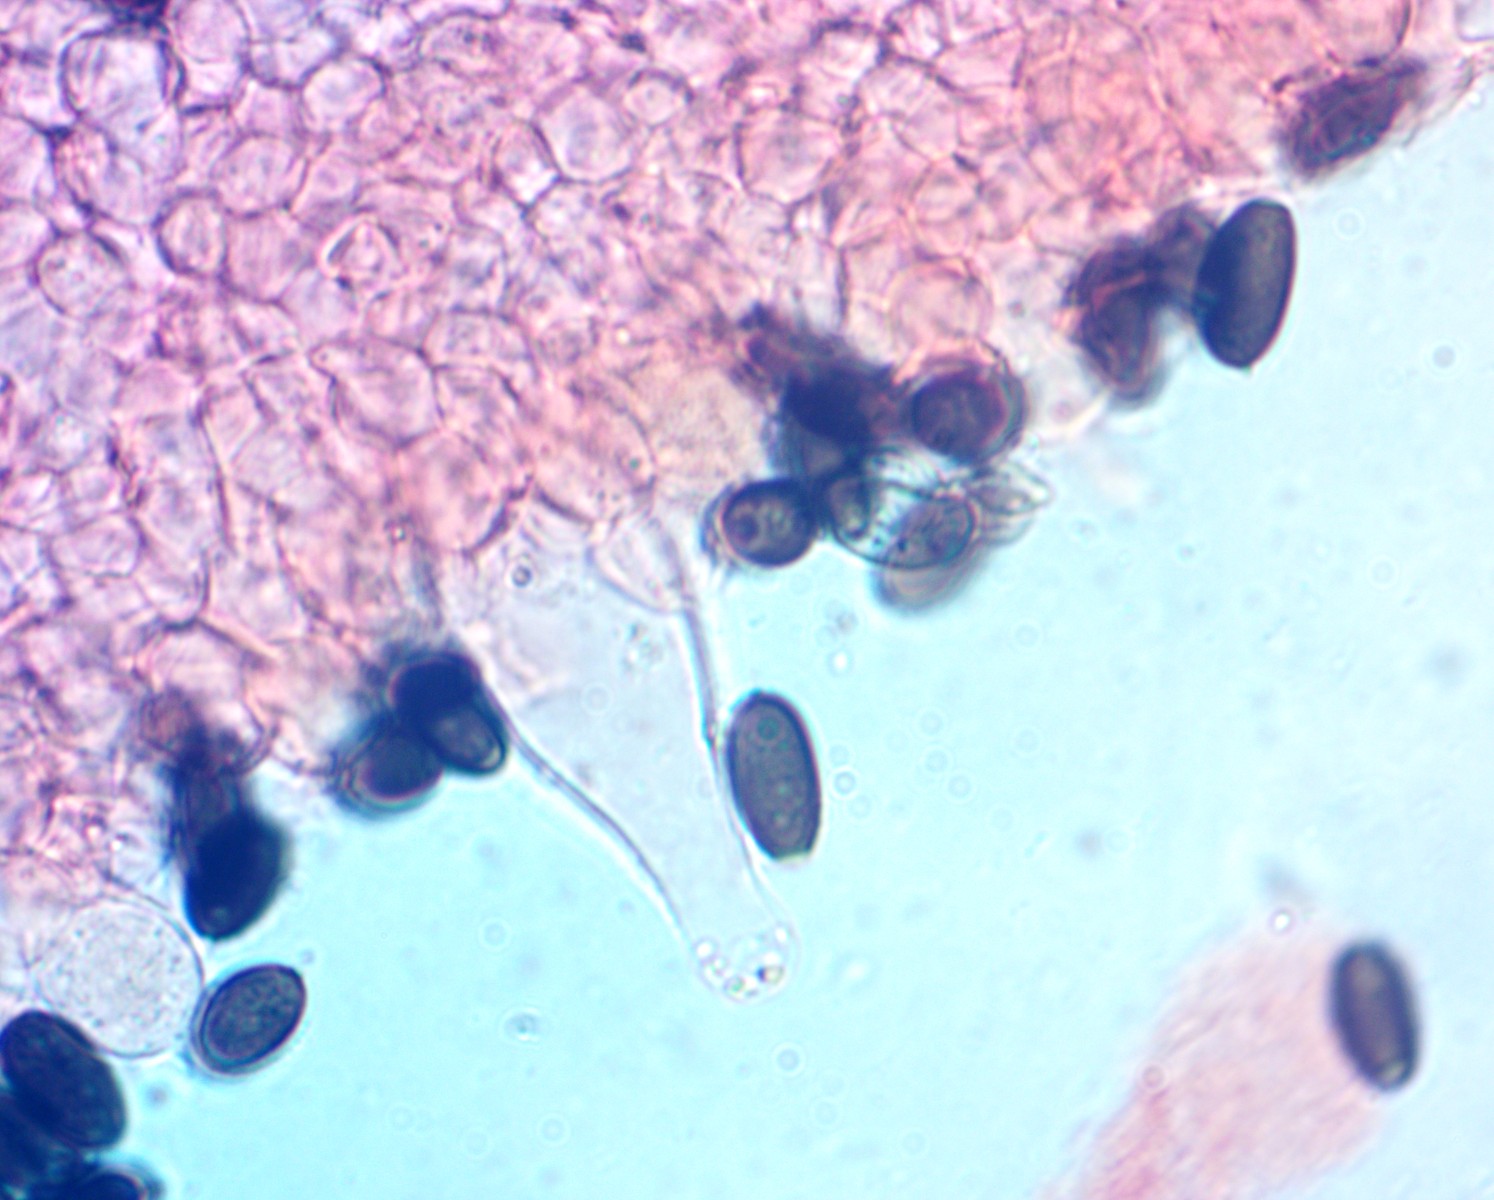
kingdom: Fungi
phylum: Basidiomycota
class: Agaricomycetes
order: Agaricales
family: Psathyrellaceae
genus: Psathyrella
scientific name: Psathyrella
